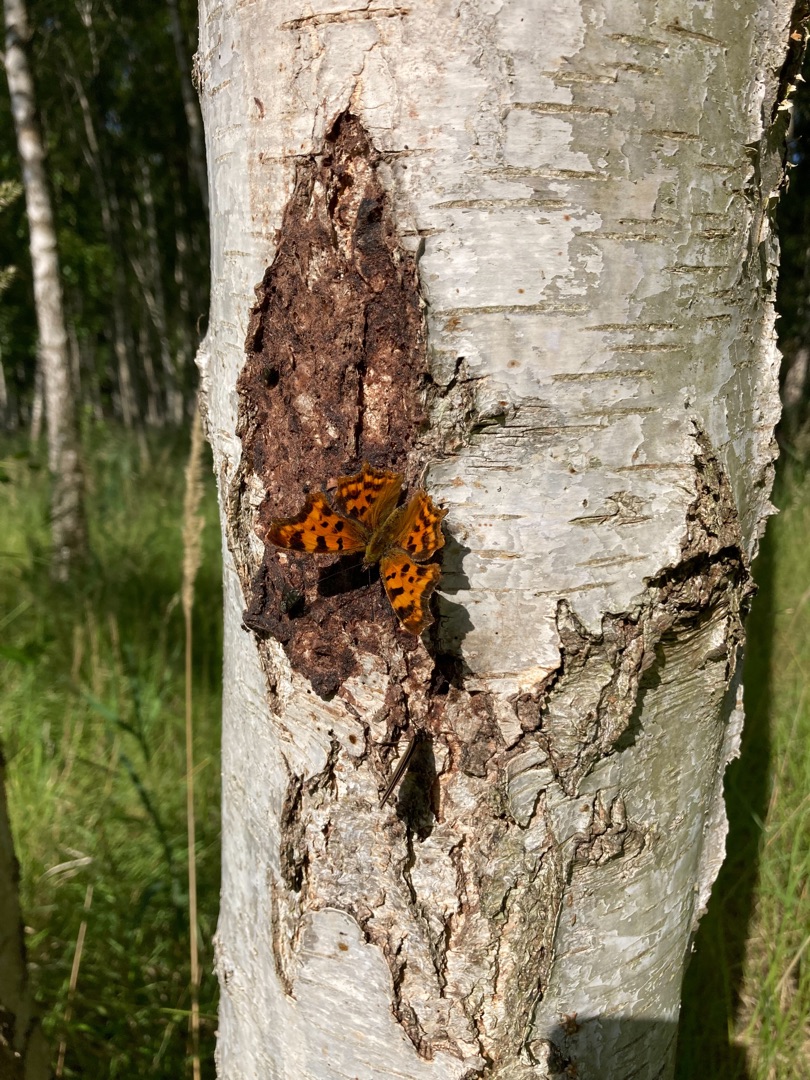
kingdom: Animalia
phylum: Arthropoda
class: Insecta
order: Lepidoptera
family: Nymphalidae
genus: Polygonia
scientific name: Polygonia c-album
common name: Det hvide C
